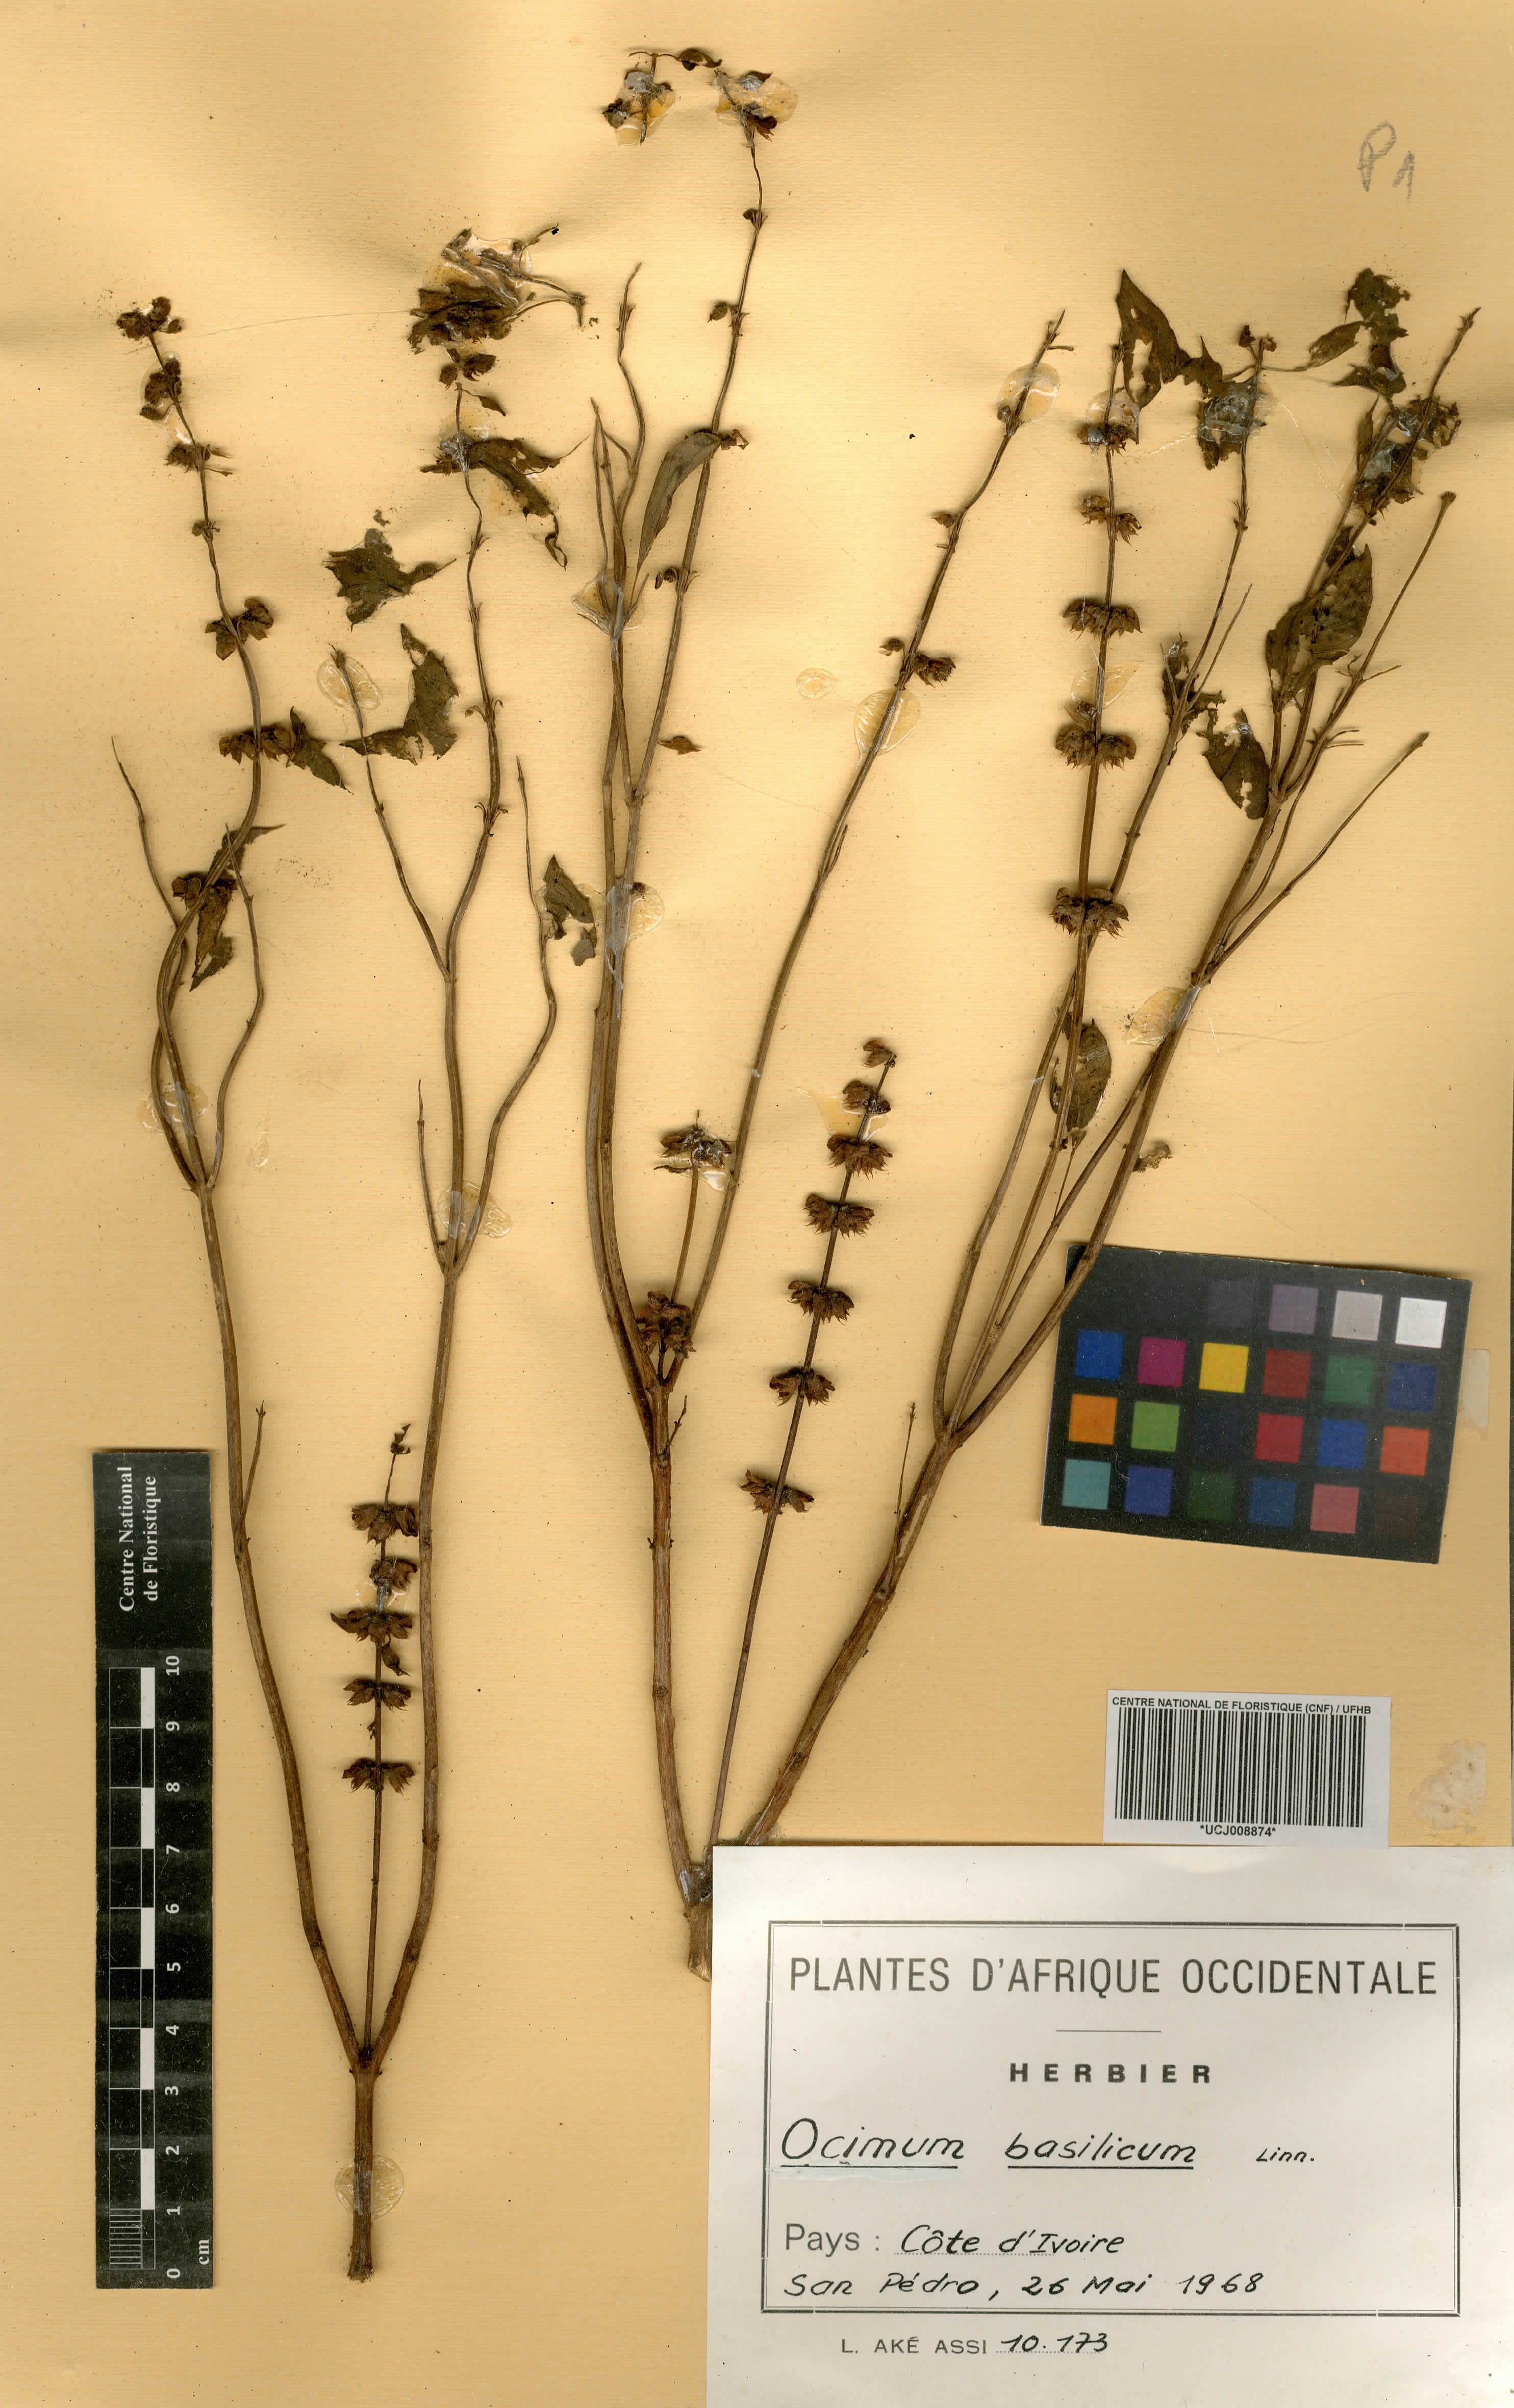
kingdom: Plantae
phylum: Tracheophyta
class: Magnoliopsida
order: Lamiales
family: Lamiaceae
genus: Ocimum
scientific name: Ocimum basilicum
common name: Sweet basil
